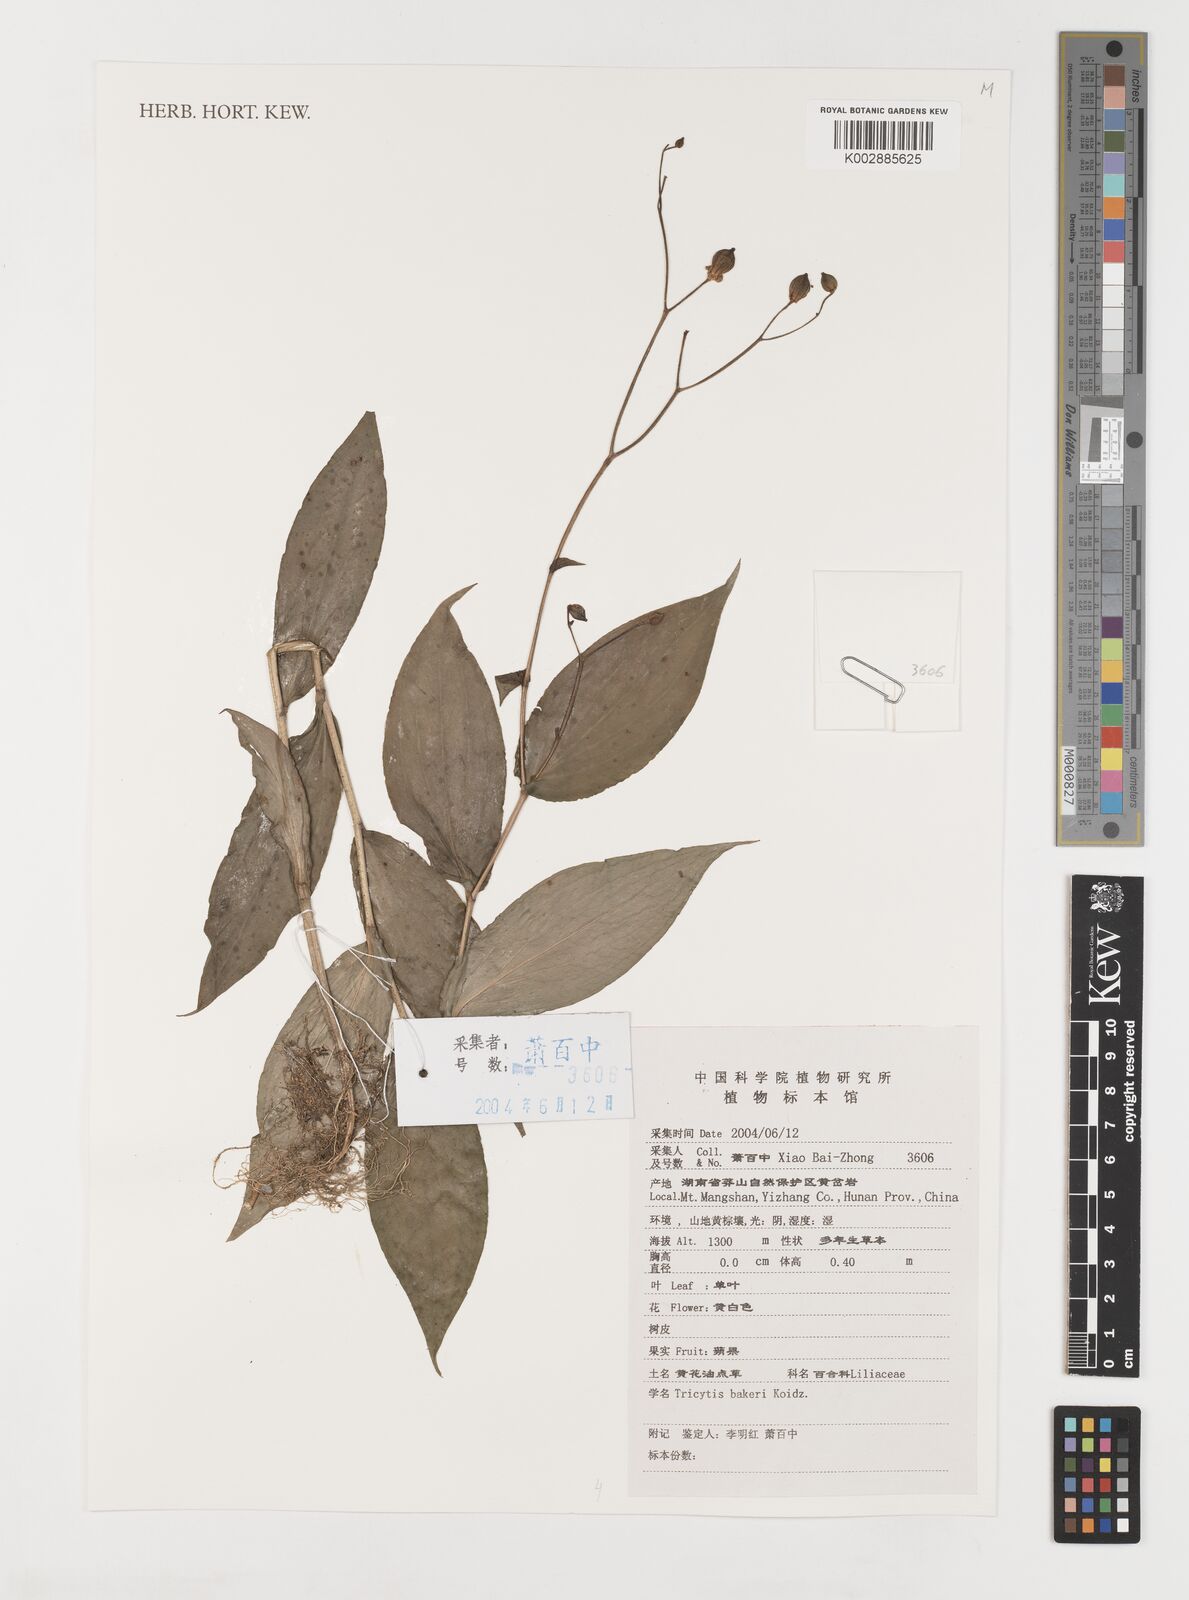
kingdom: Plantae
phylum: Tracheophyta
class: Liliopsida
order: Liliales
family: Liliaceae
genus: Tricyrtis
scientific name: Tricyrtis latifolia
